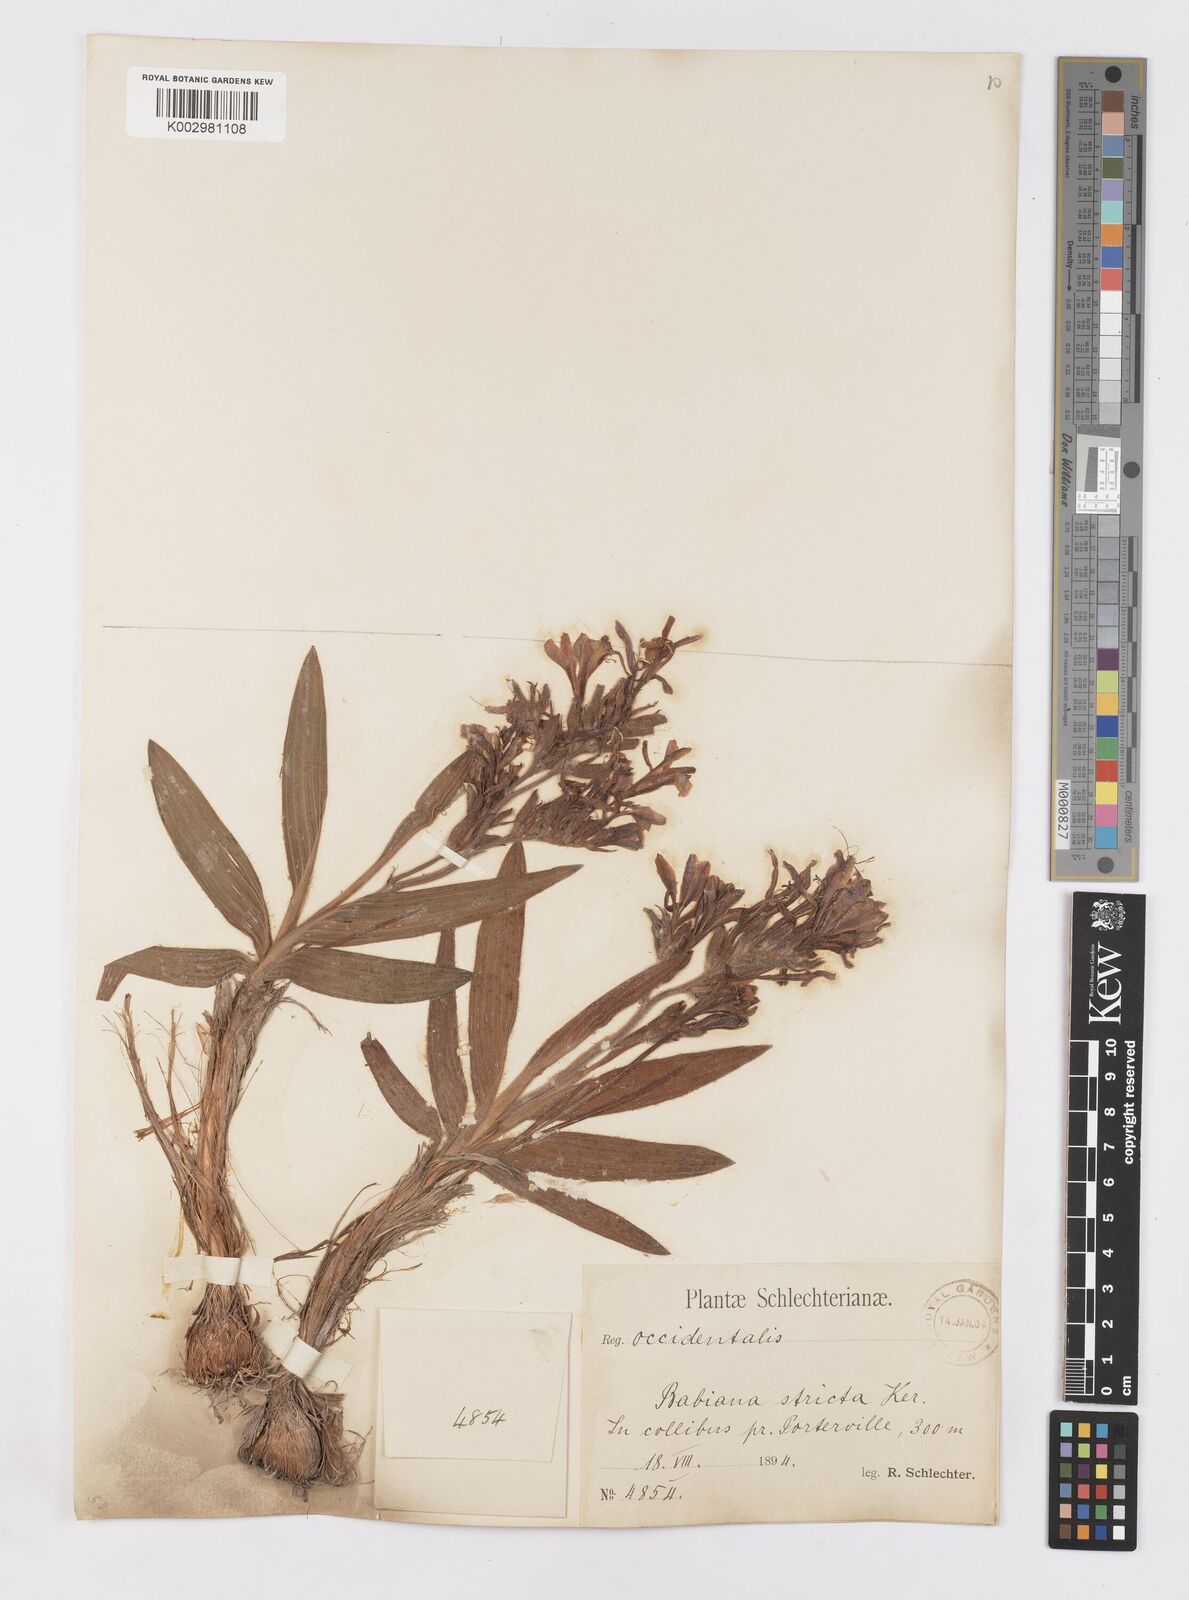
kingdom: Plantae
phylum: Tracheophyta
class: Liliopsida
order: Asparagales
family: Iridaceae
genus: Babiana
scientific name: Babiana odorata
